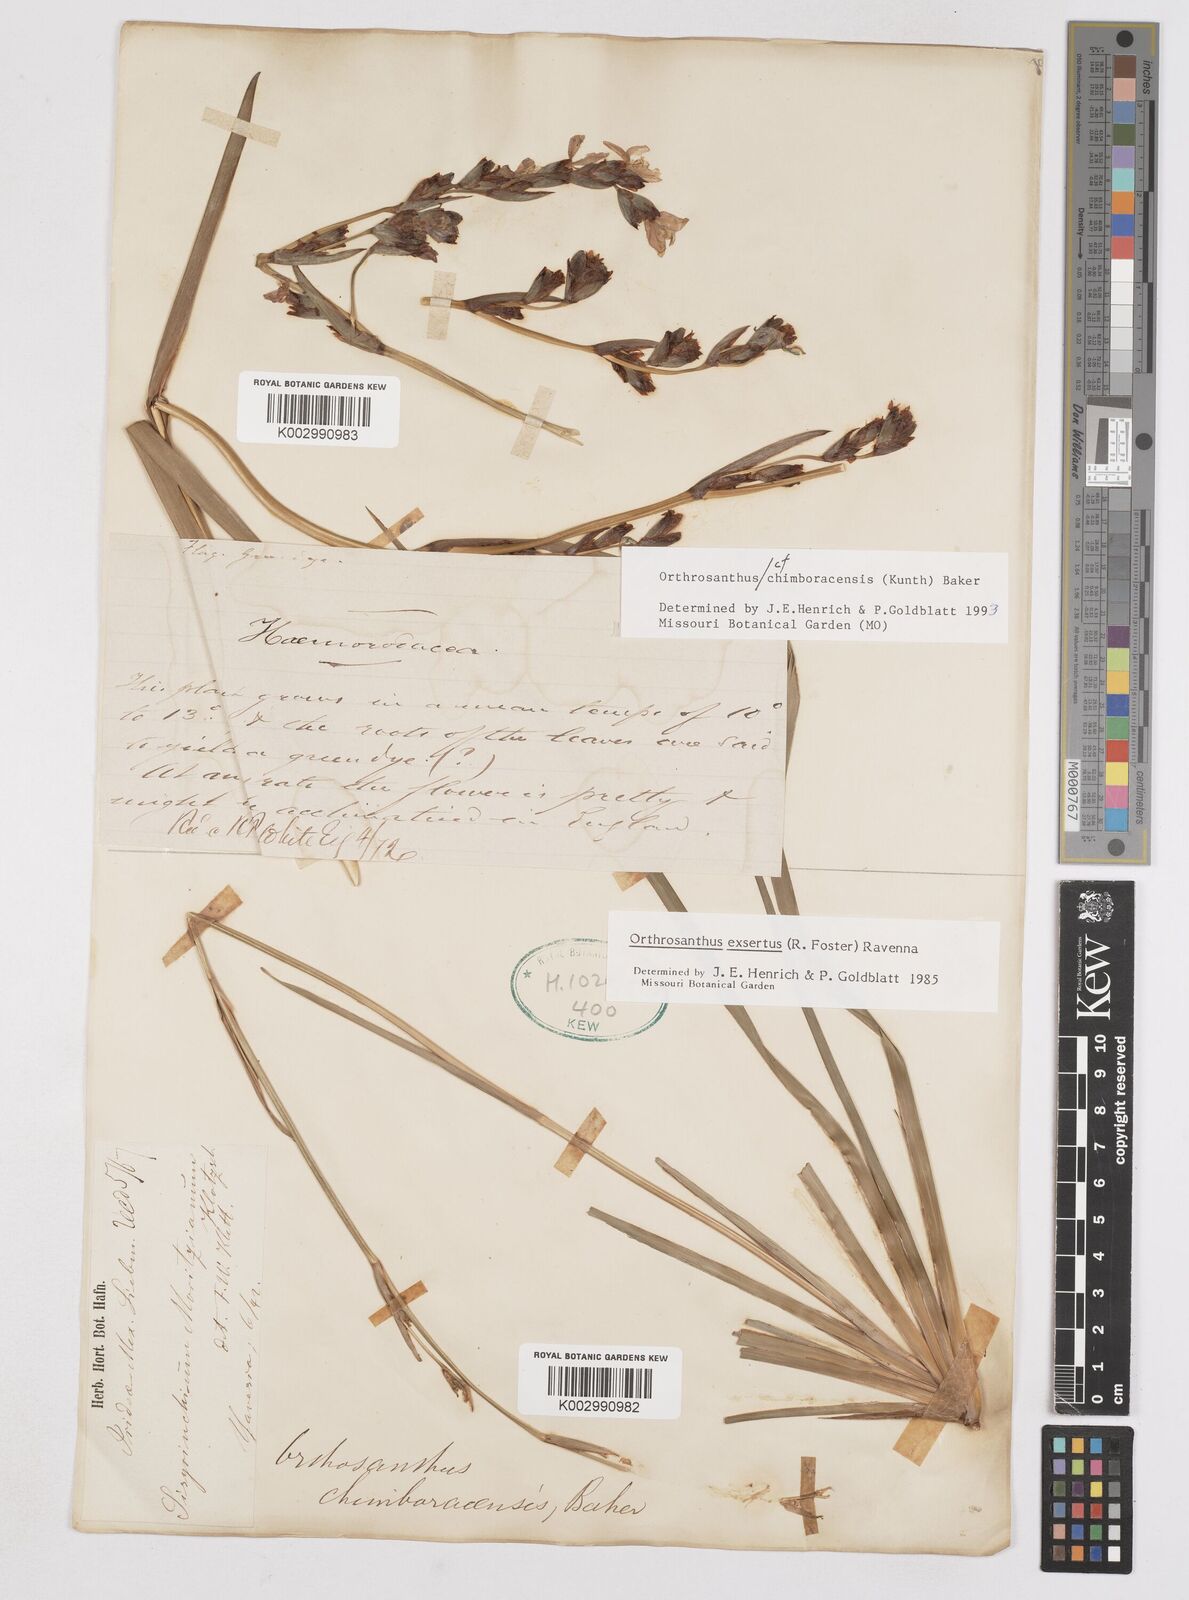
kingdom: Plantae
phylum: Tracheophyta
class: Liliopsida
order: Asparagales
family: Iridaceae
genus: Orthrosanthus
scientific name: Orthrosanthus chimboracensis
